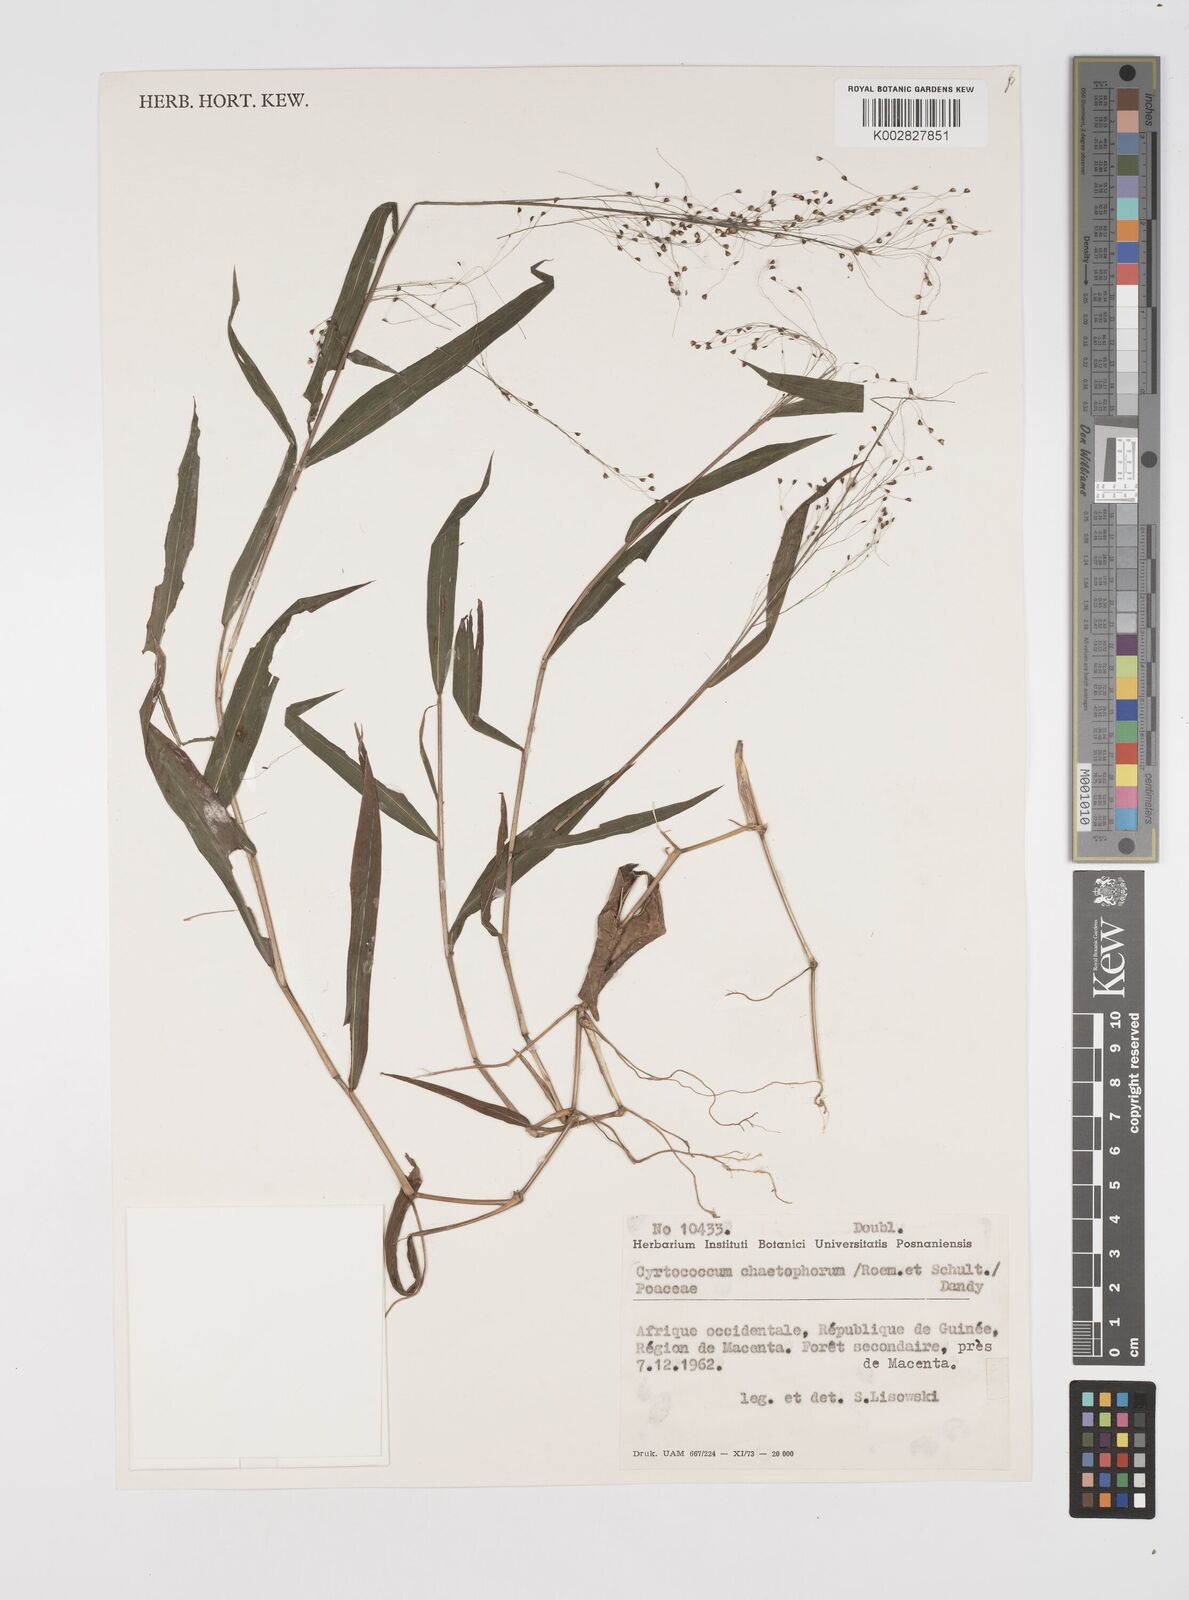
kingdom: Plantae
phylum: Tracheophyta
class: Liliopsida
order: Poales
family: Poaceae
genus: Cyrtococcum
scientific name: Cyrtococcum chaetophoron
